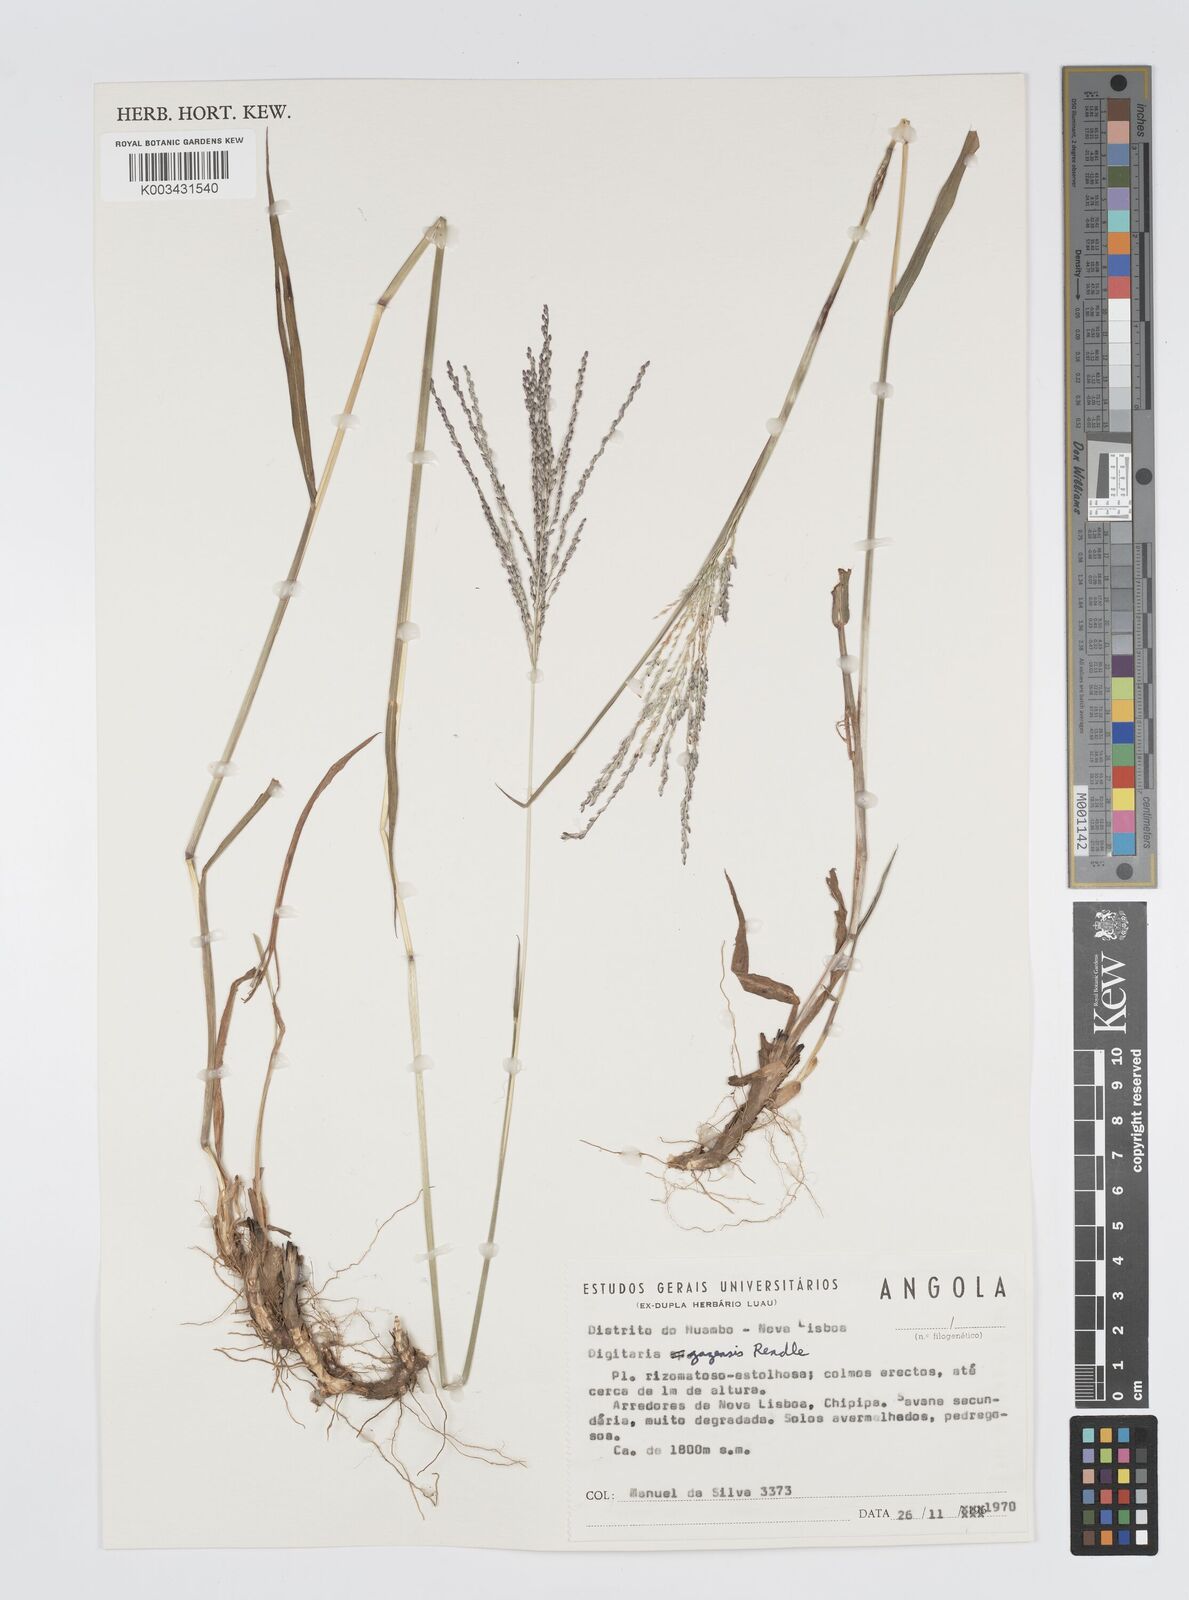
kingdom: Plantae
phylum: Tracheophyta
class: Liliopsida
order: Poales
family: Poaceae
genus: Digitaria
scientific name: Digitaria gazensis
